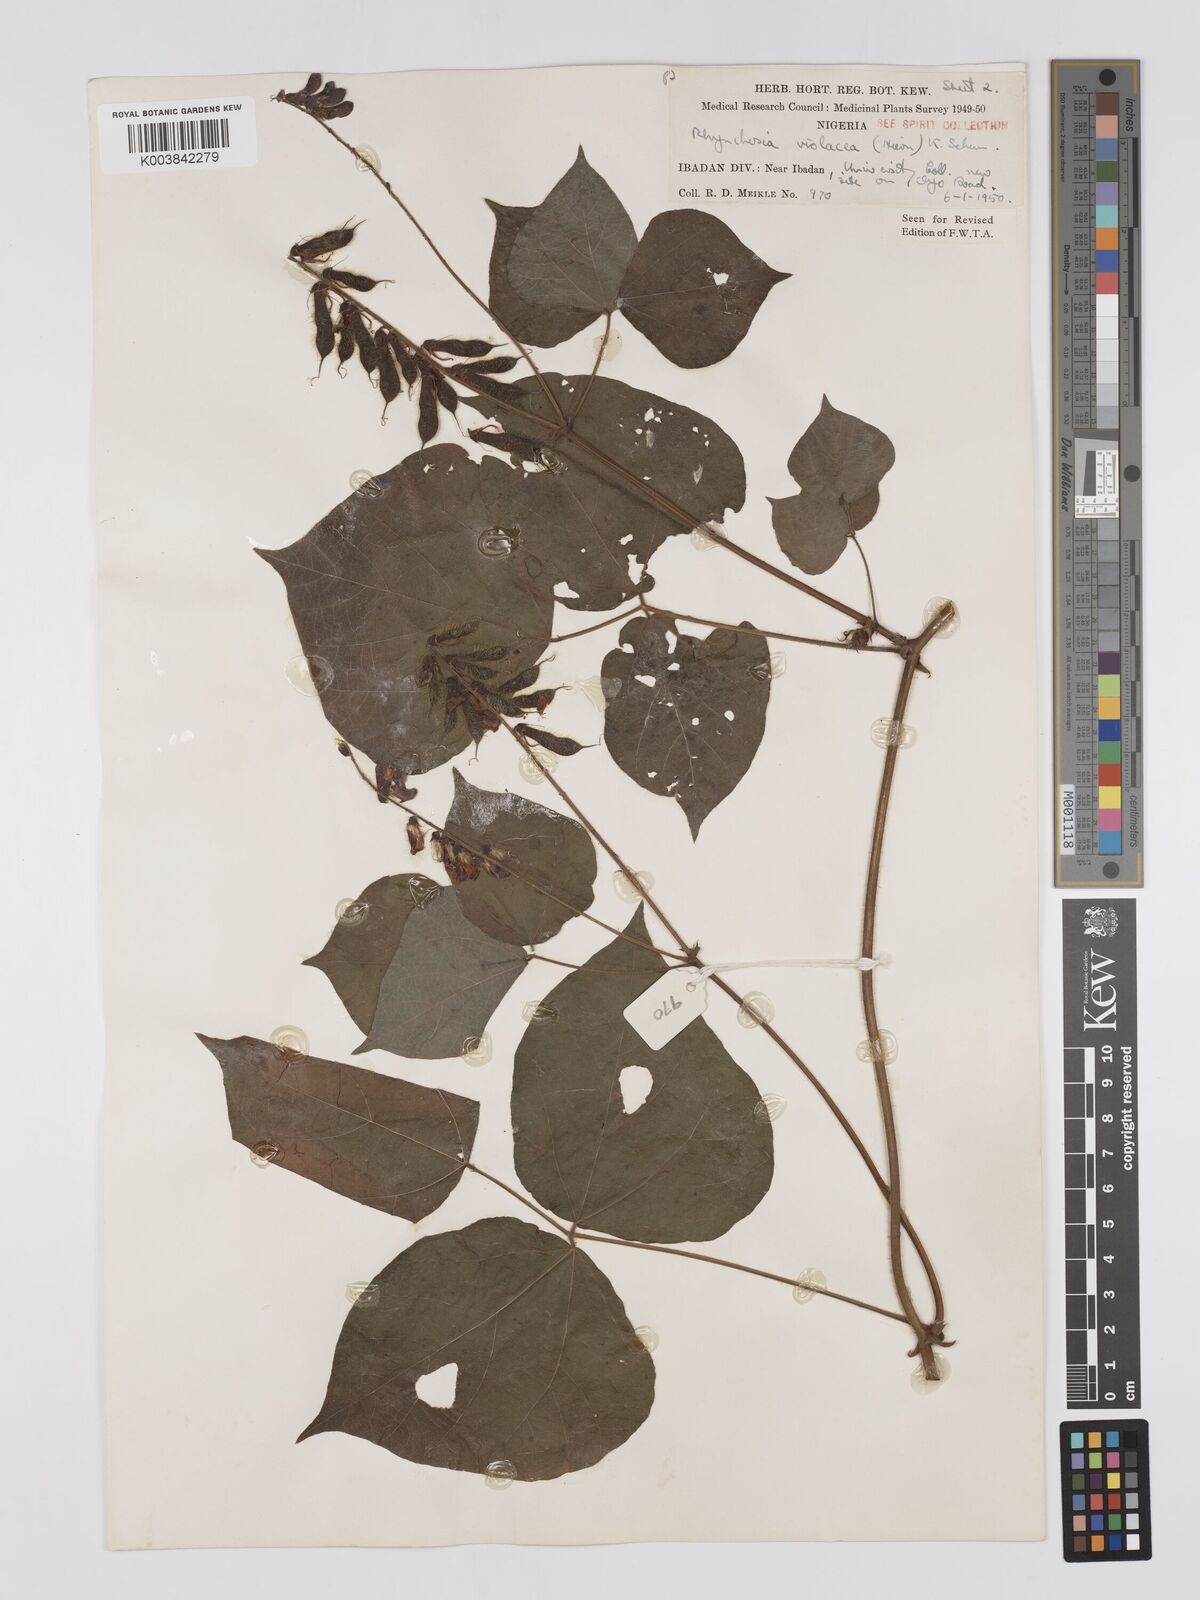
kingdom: Plantae
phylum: Tracheophyta
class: Magnoliopsida
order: Fabales
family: Fabaceae
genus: Rhynchosia
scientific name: Rhynchosia viscosa
